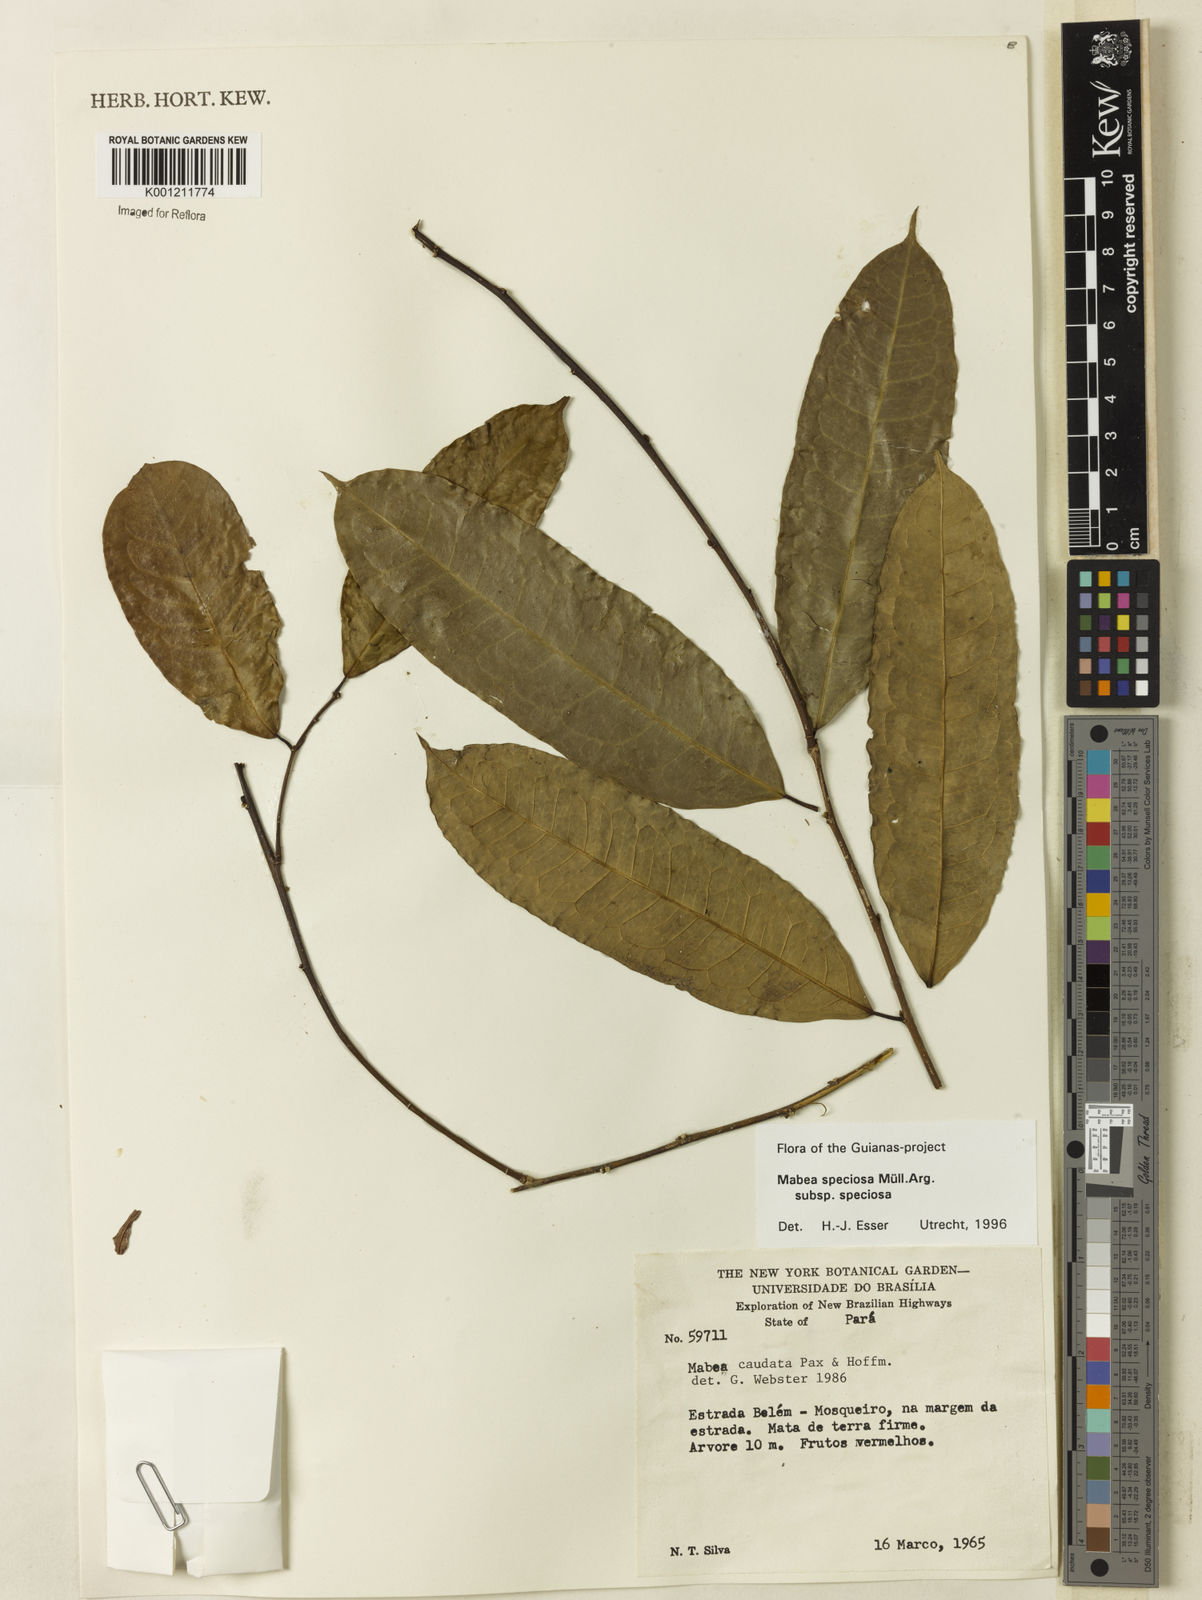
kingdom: Plantae
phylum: Tracheophyta
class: Magnoliopsida
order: Malpighiales
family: Euphorbiaceae
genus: Mabea
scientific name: Mabea
